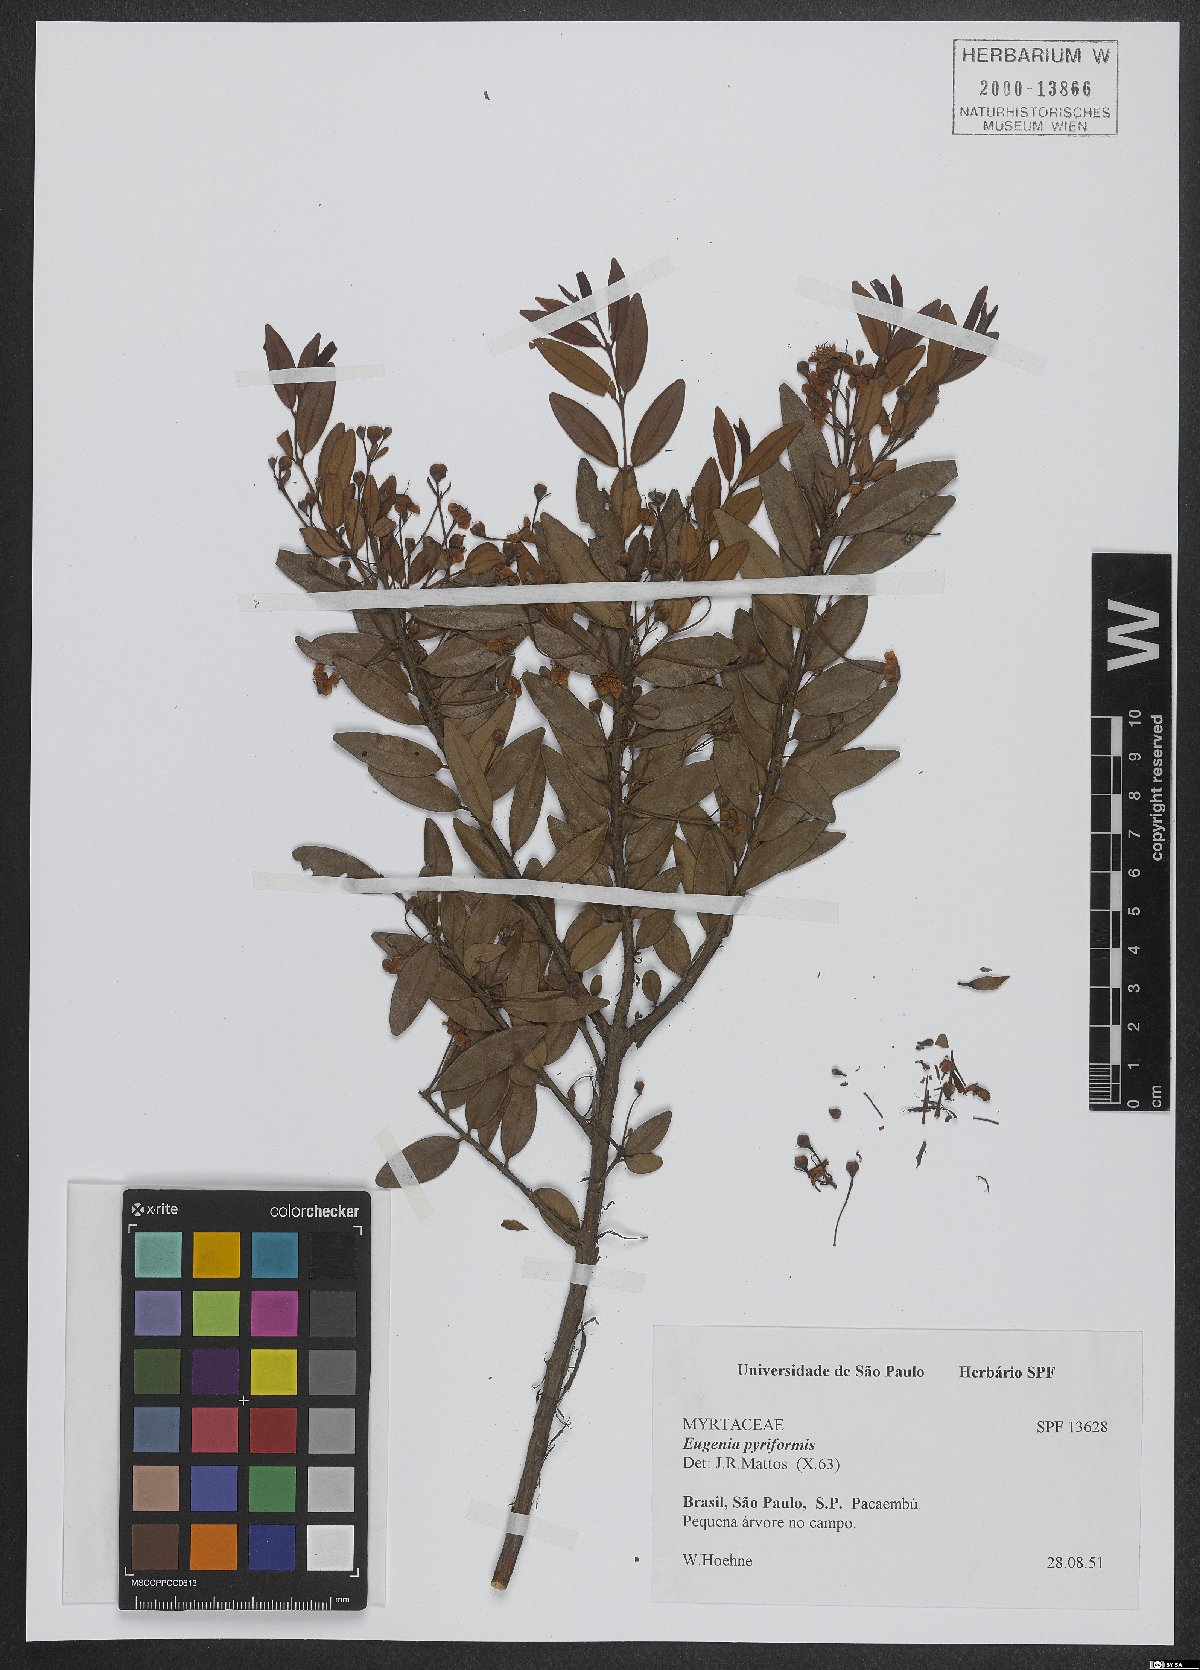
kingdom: Plantae
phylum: Tracheophyta
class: Magnoliopsida
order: Myrtales
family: Myrtaceae
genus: Eugenia
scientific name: Eugenia pyriformis
